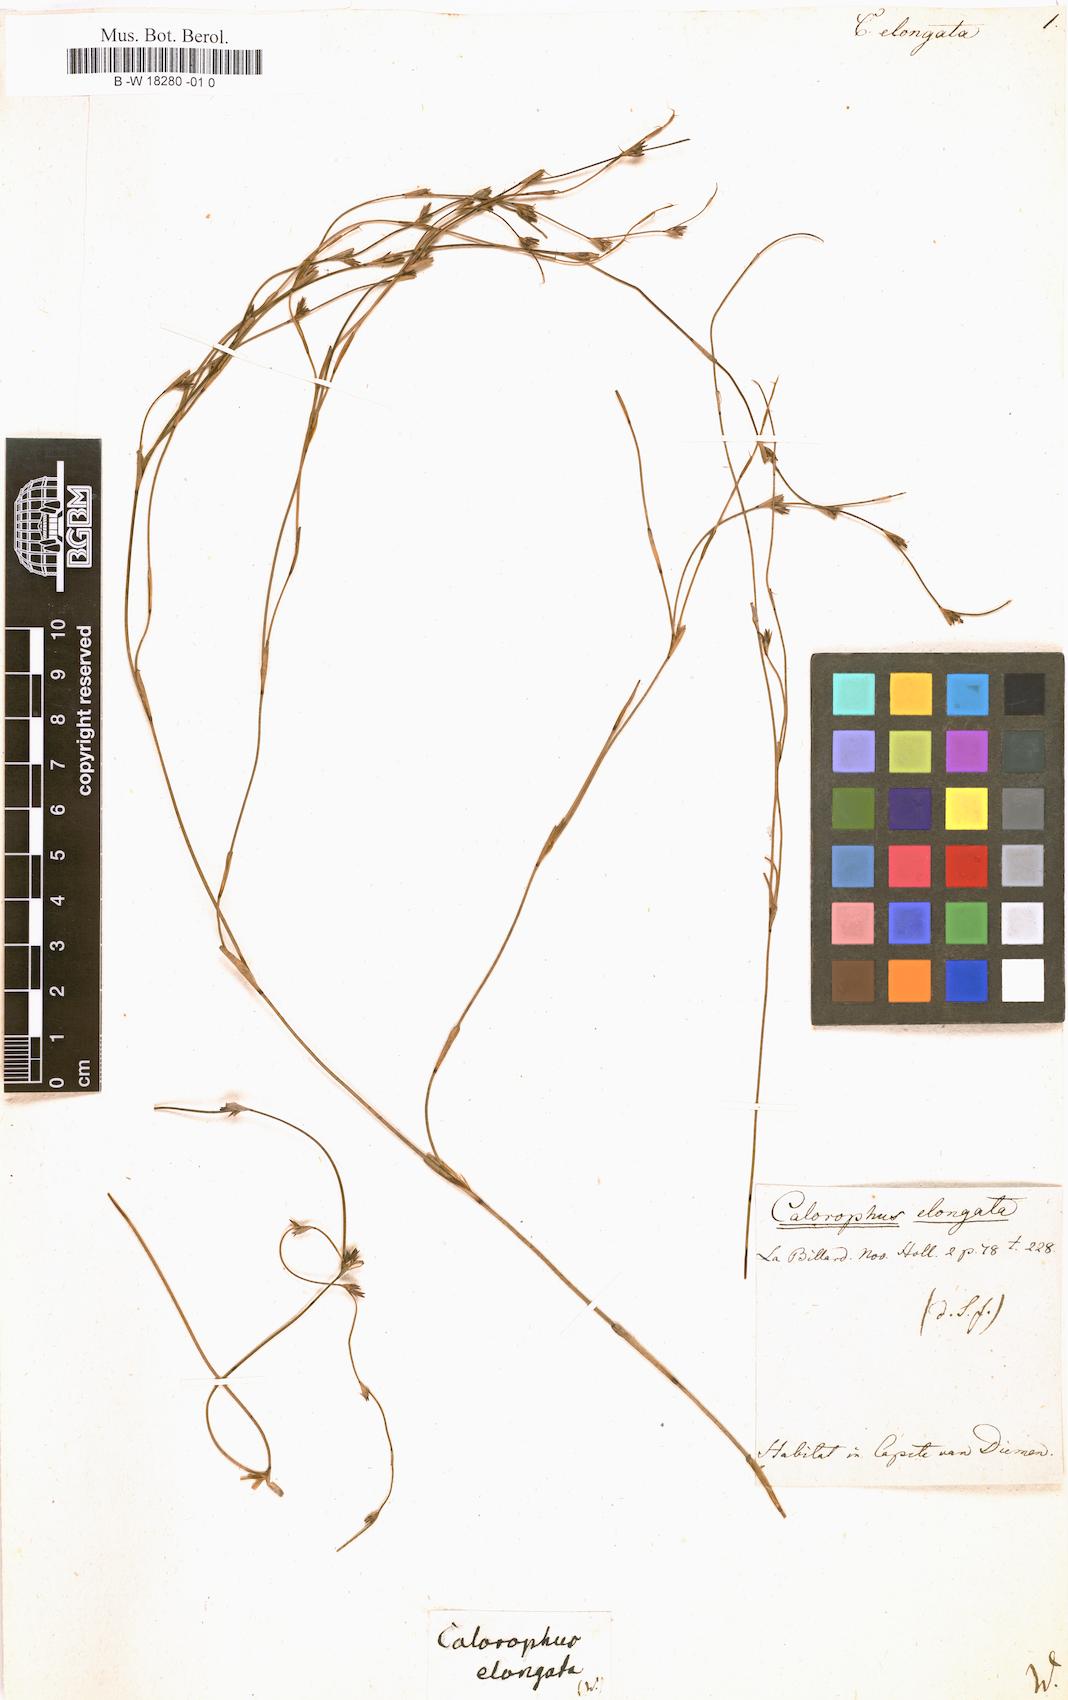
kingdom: Plantae
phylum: Tracheophyta
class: Liliopsida
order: Poales
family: Restionaceae
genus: Calorophus
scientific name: Calorophus elongatus
